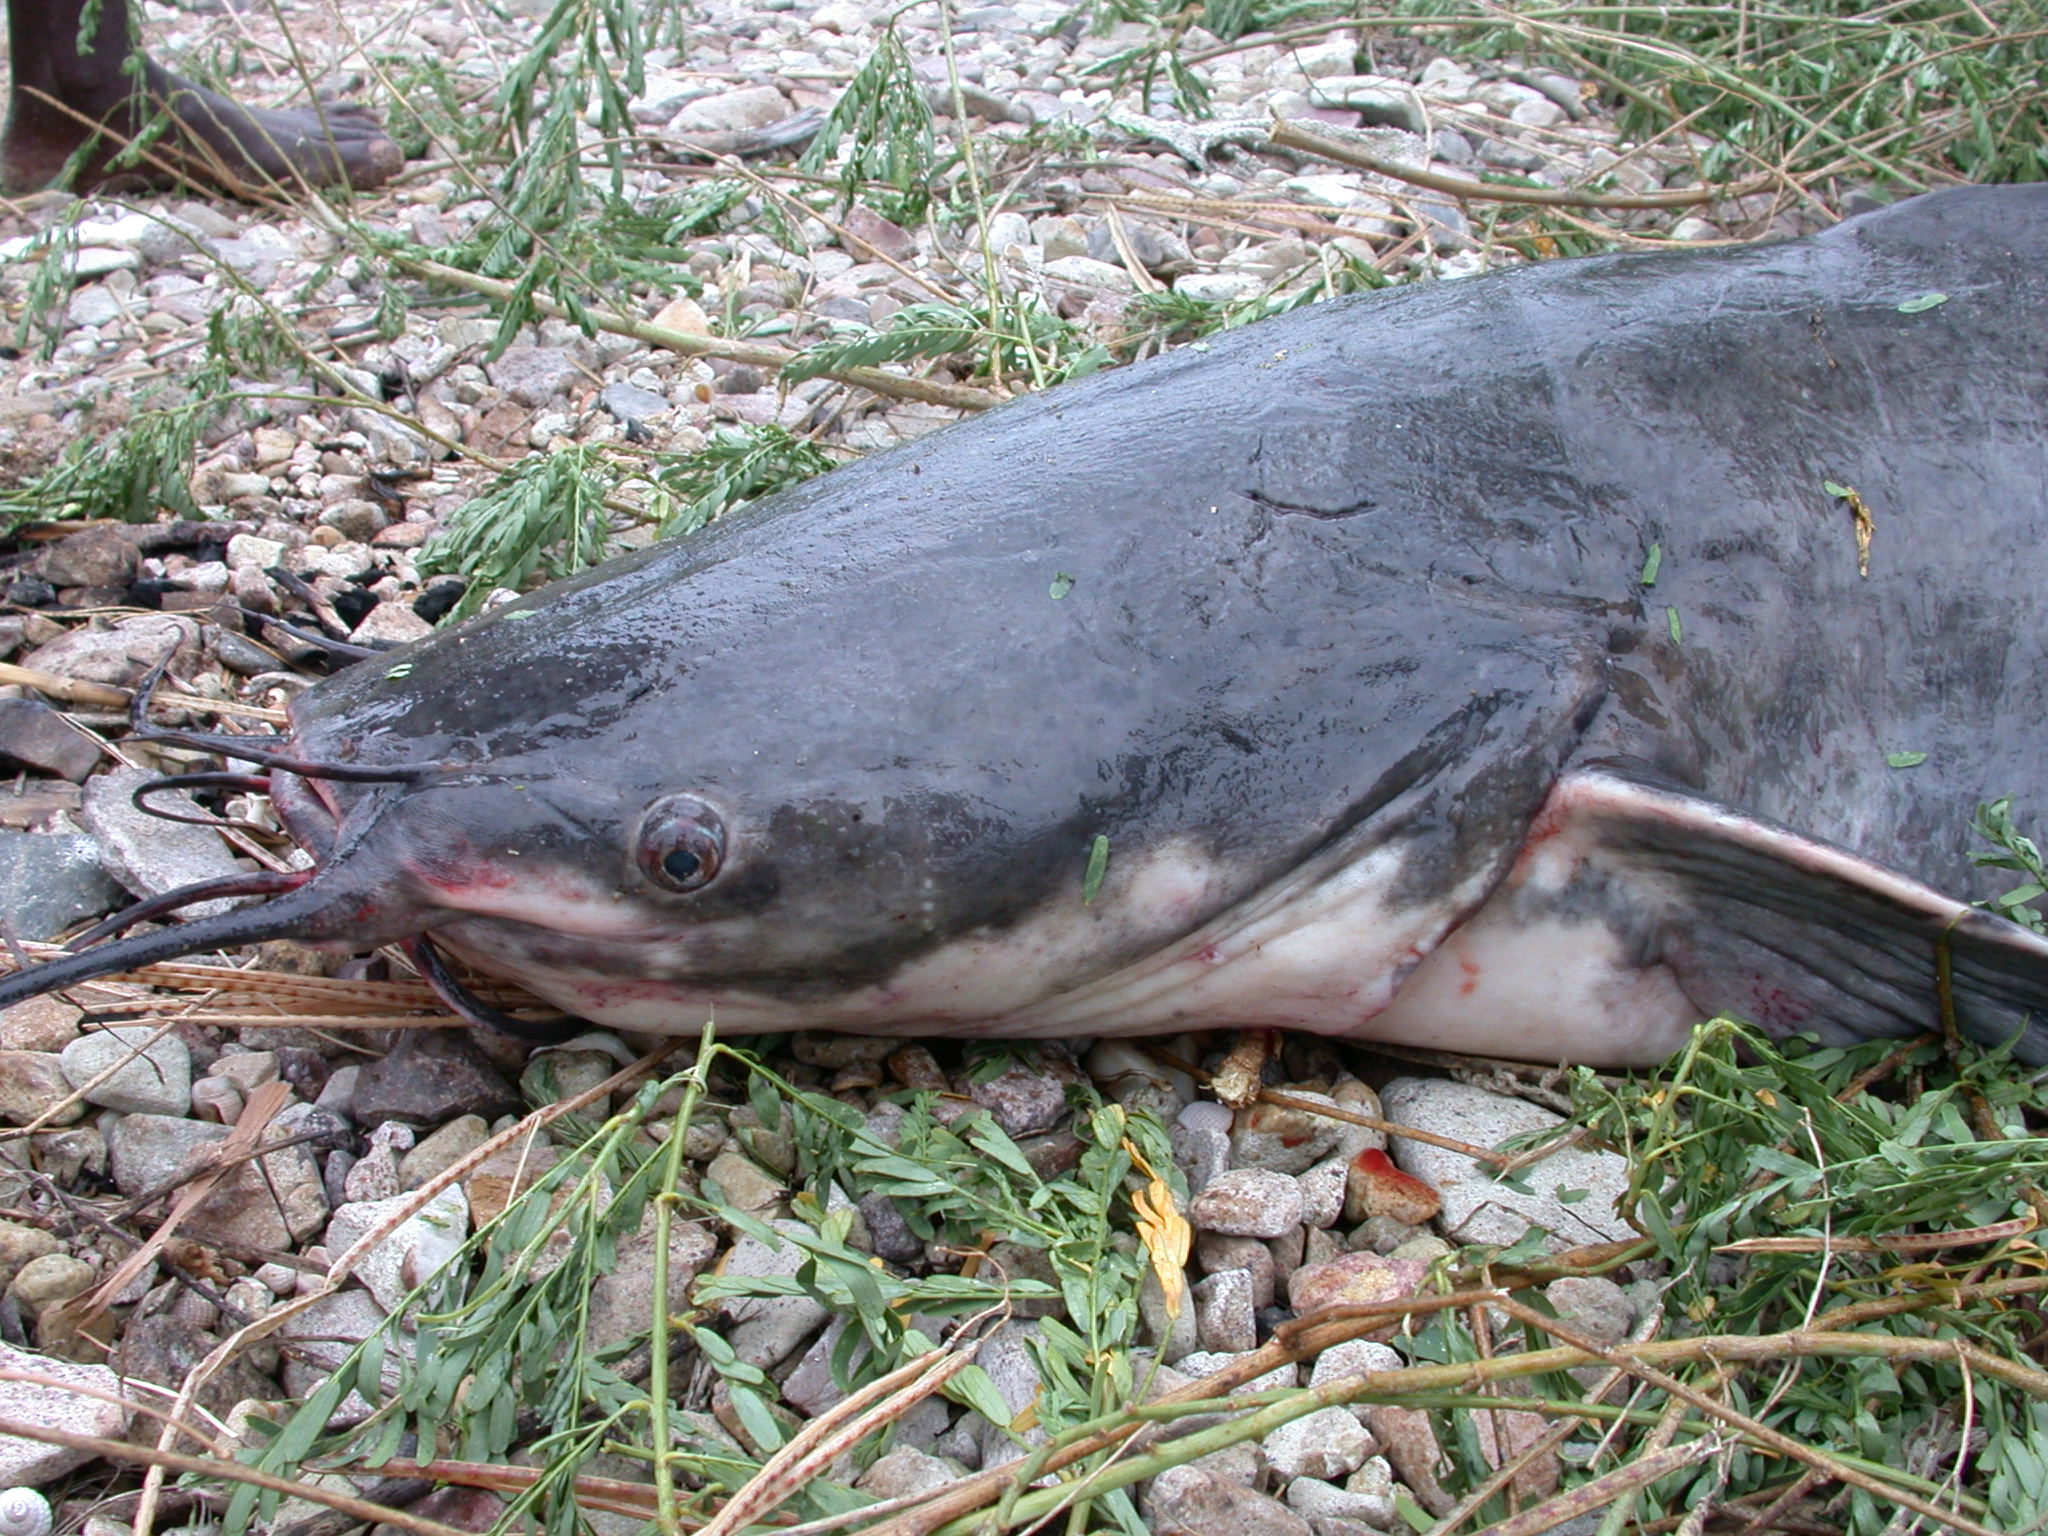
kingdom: Animalia
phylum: Chordata
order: Siluriformes
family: Clariidae
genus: Dinotopterus
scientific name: Dinotopterus cunningtoni
